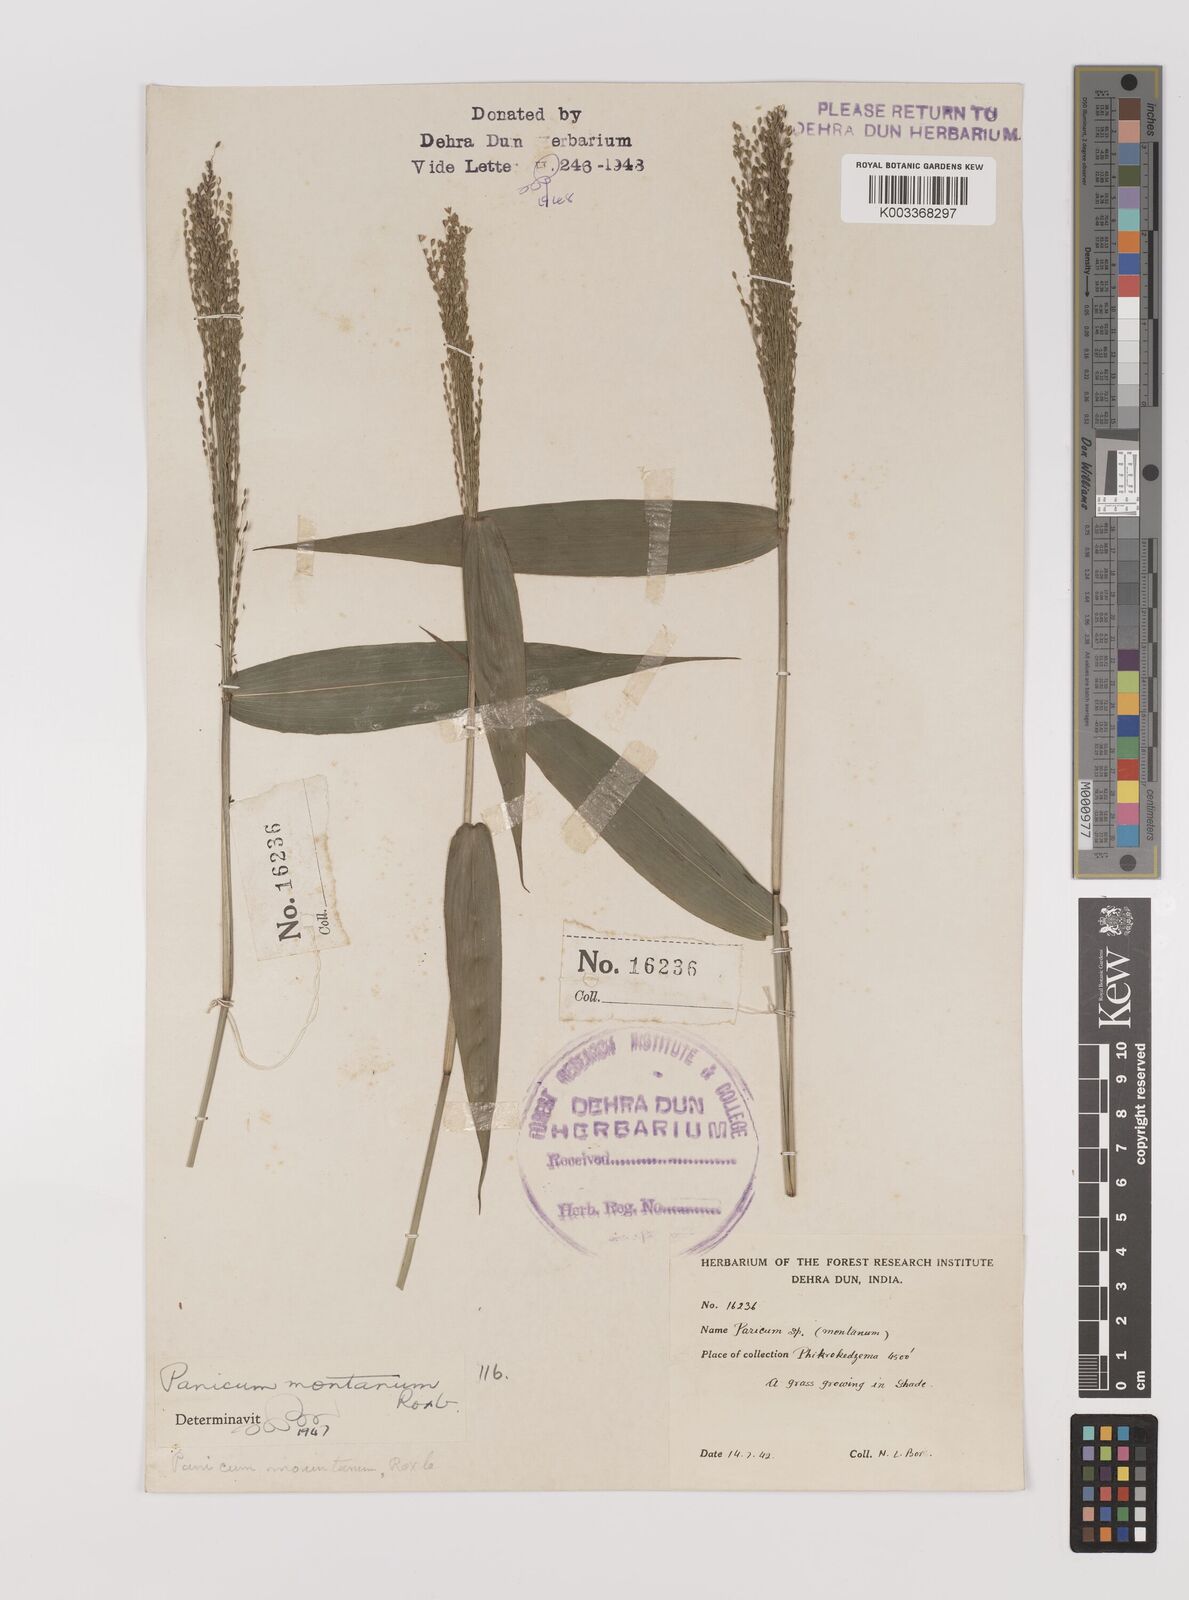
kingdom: Plantae
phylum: Tracheophyta
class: Liliopsida
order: Poales
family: Poaceae
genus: Panicum
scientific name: Panicum notatum
